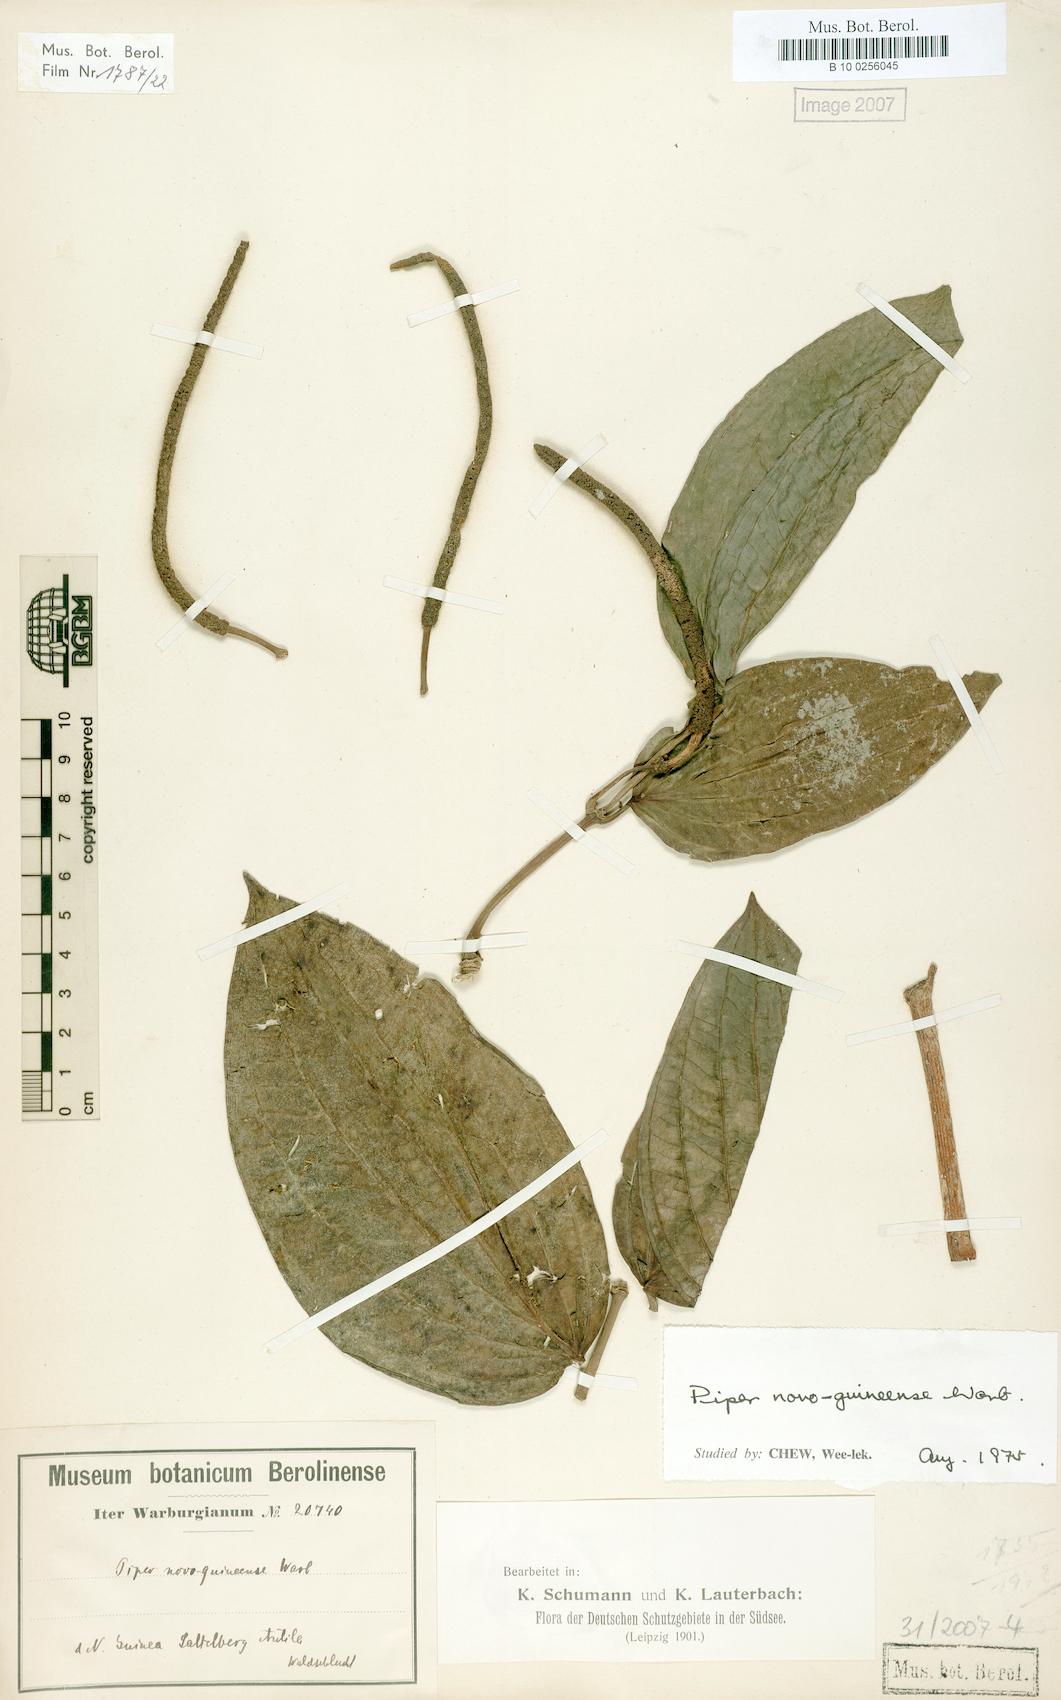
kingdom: Plantae
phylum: Tracheophyta
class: Magnoliopsida
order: Piperales
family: Piperaceae
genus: Piper
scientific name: Piper macropiper
